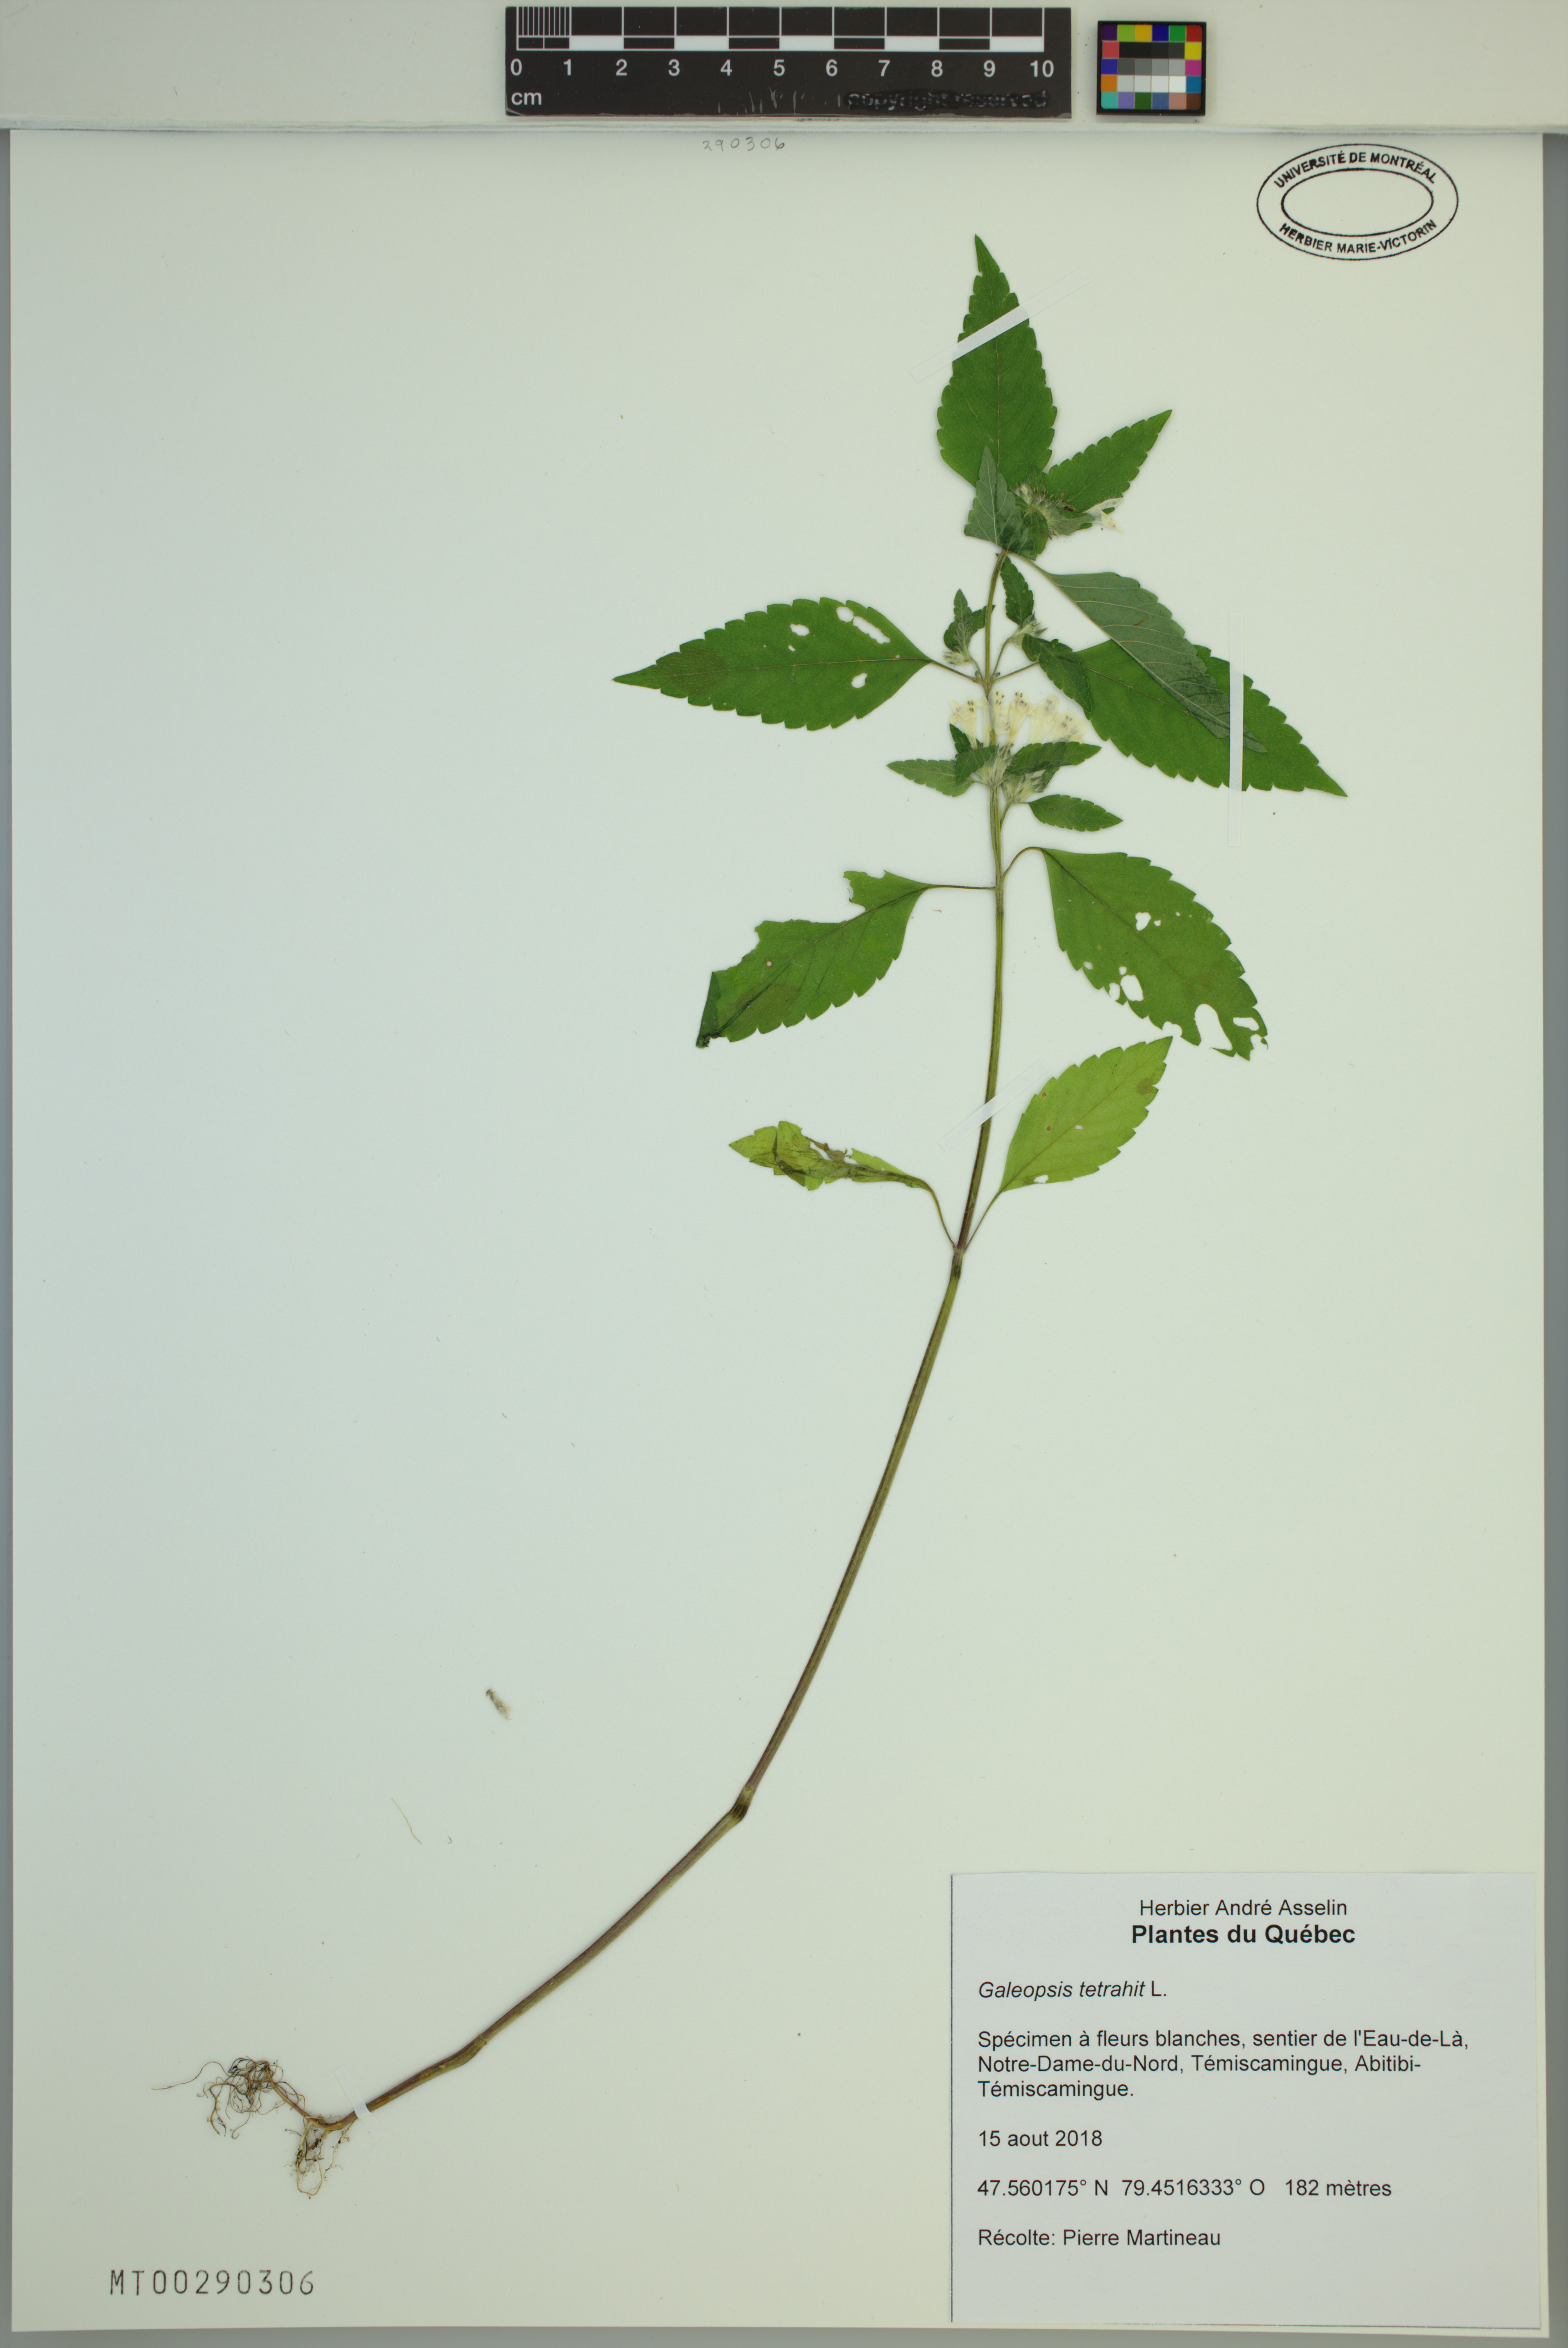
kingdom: Plantae
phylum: Tracheophyta
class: Magnoliopsida
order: Lamiales
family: Lamiaceae
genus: Galeopsis
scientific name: Galeopsis tetrahit
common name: Common hemp-nettle
